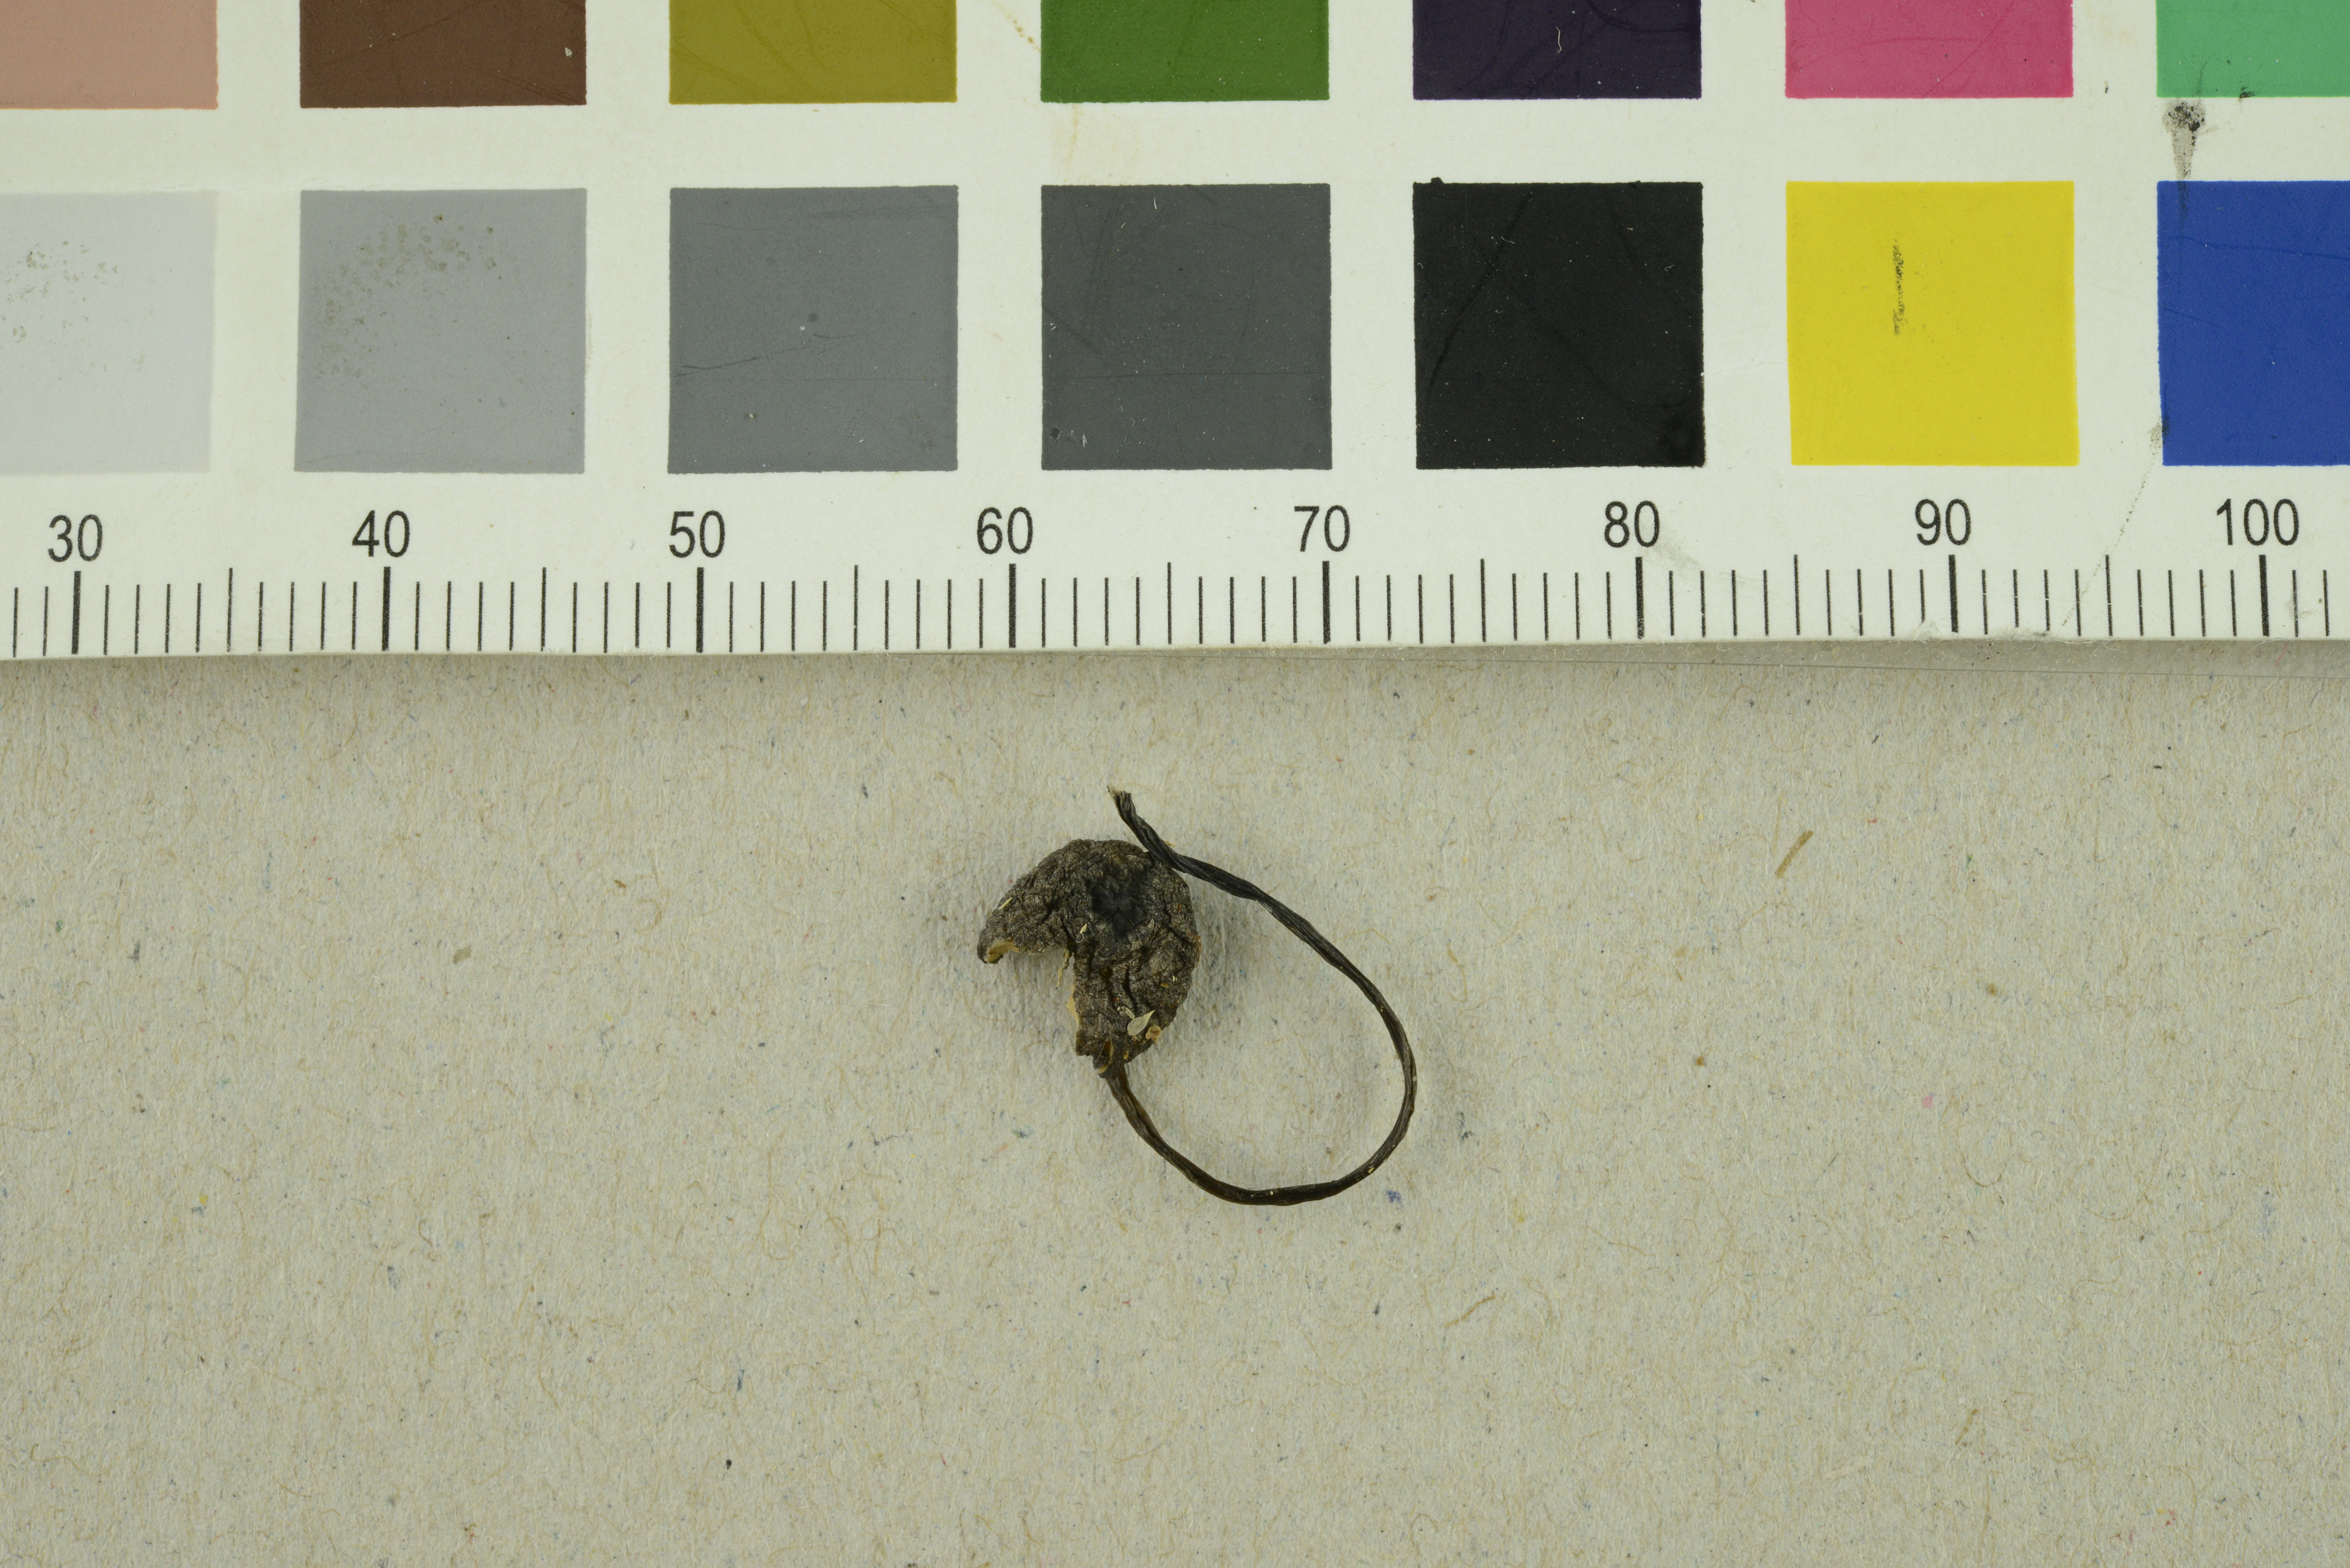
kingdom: Fungi
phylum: Basidiomycota
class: Agaricomycetes
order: Agaricales
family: Entolomataceae
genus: Entoloma
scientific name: Entoloma
